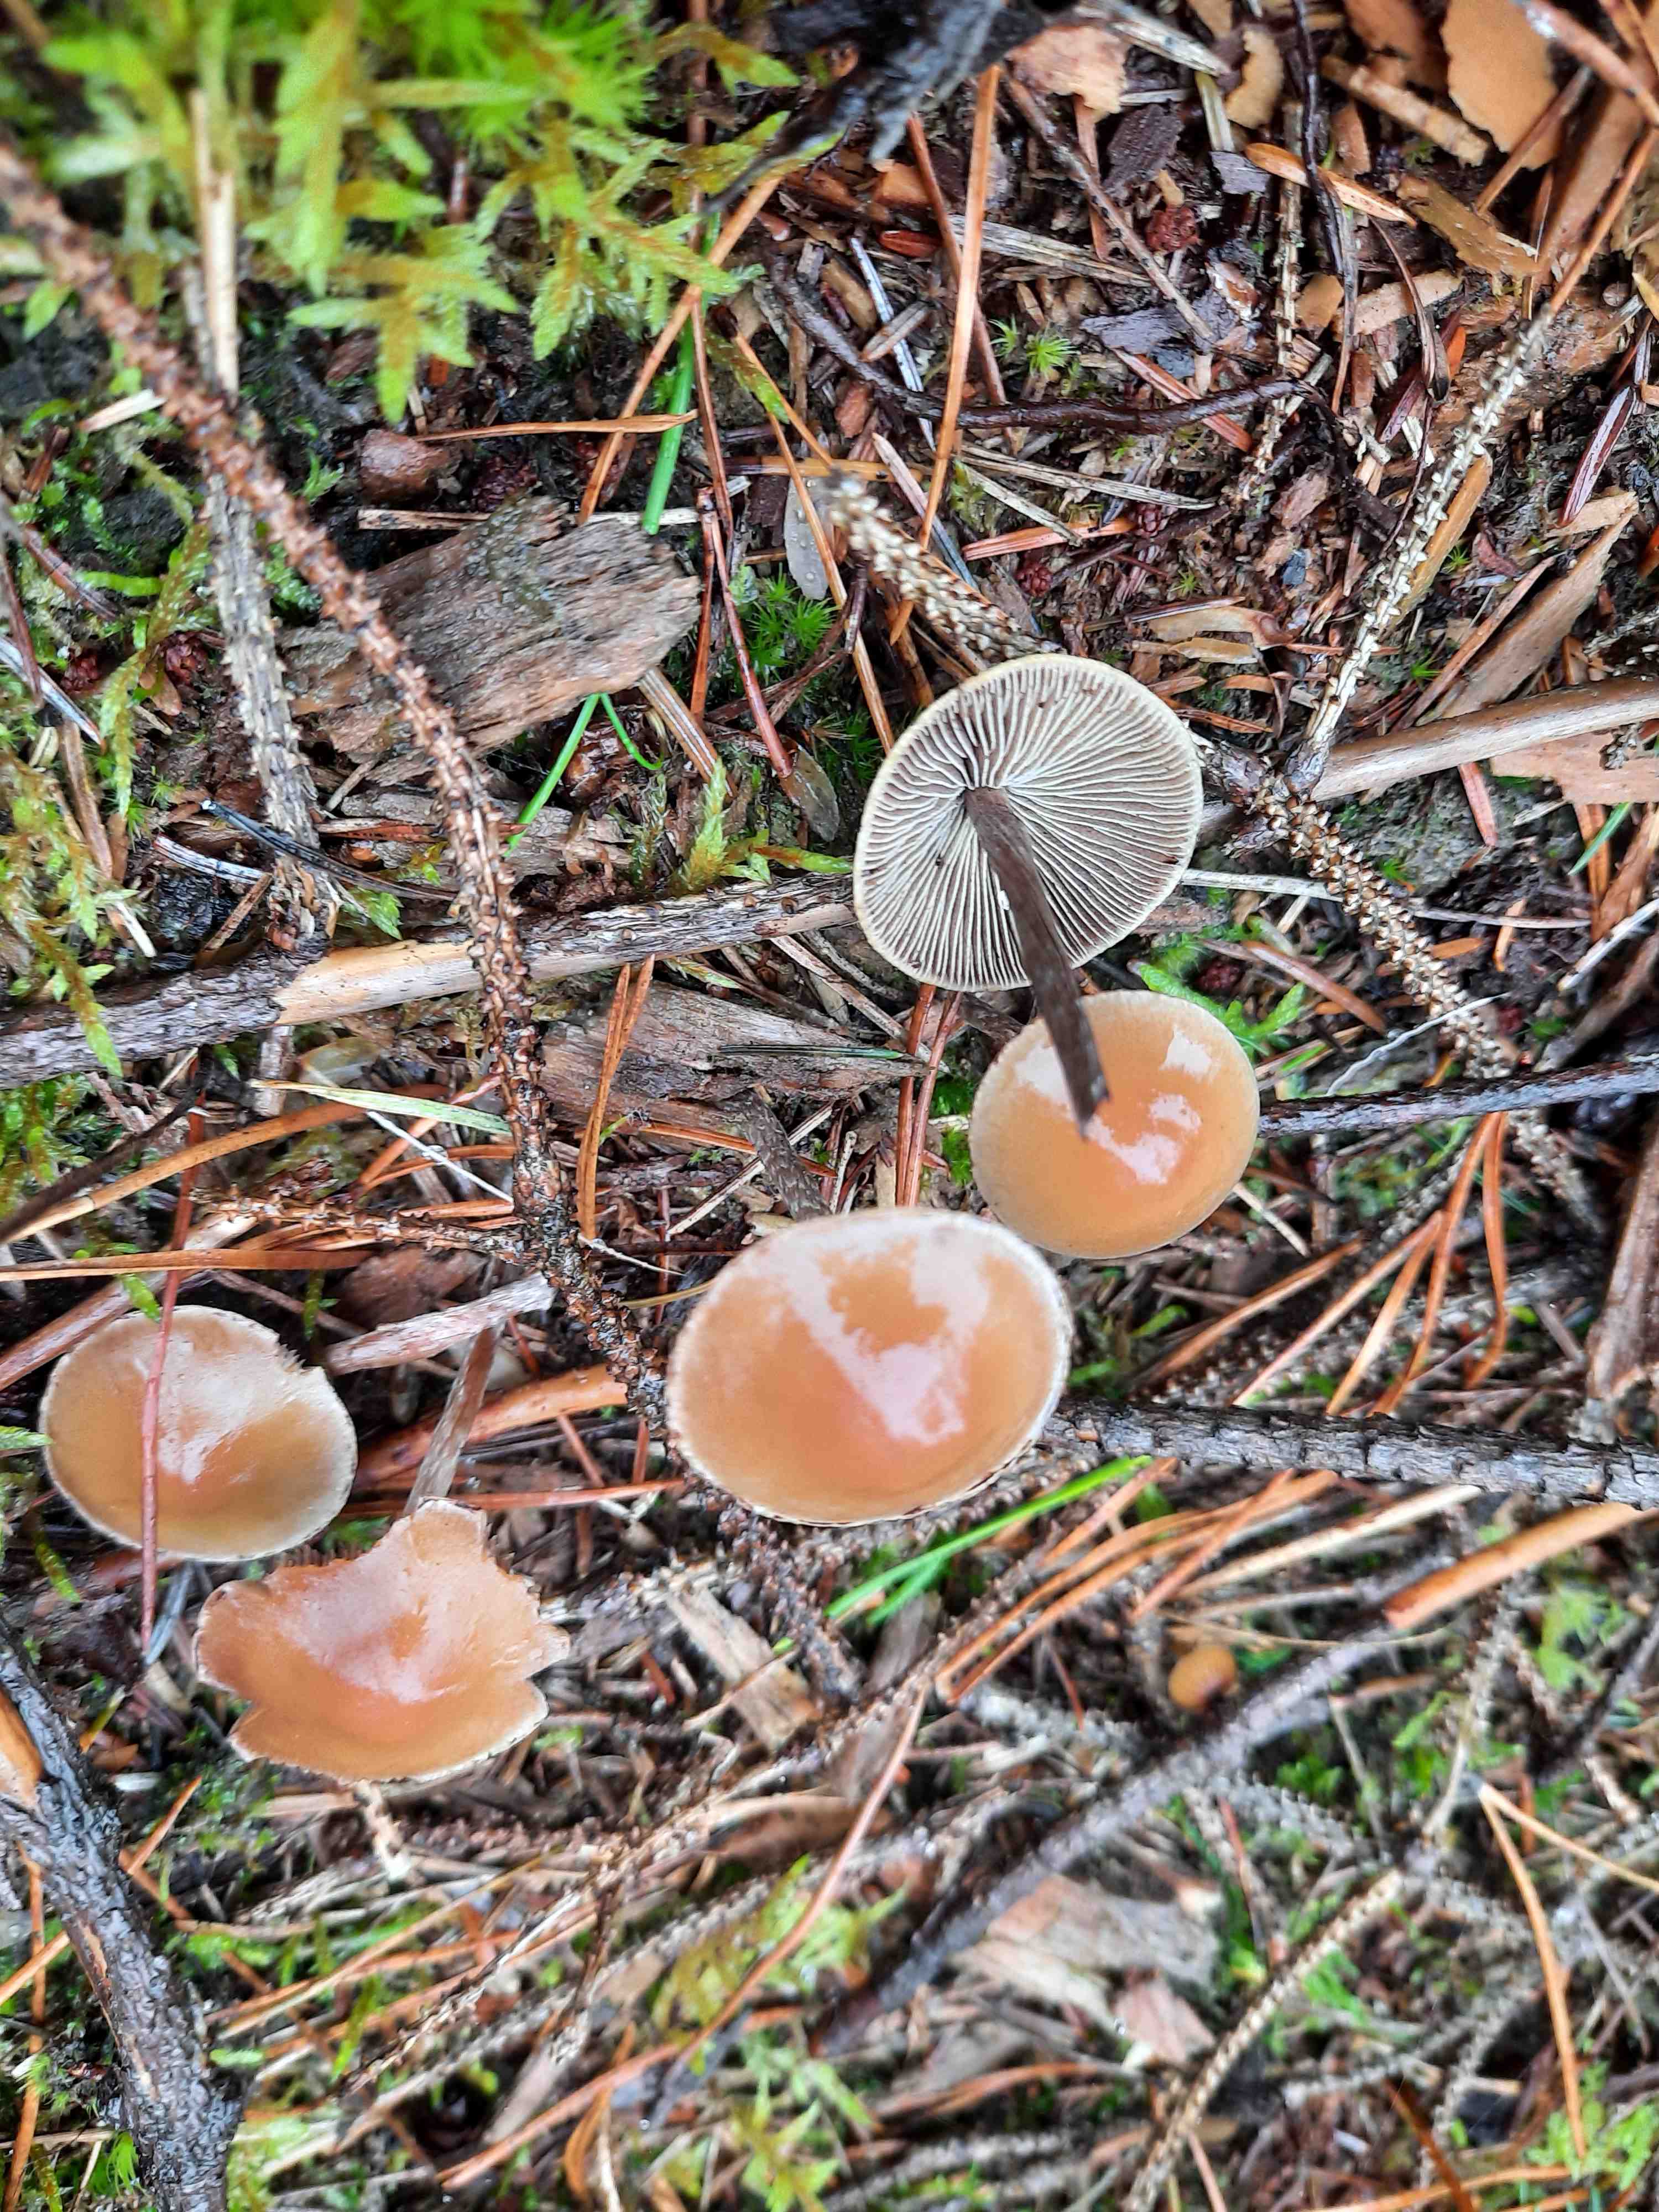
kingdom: Fungi
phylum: Basidiomycota
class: Agaricomycetes
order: Agaricales
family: Strophariaceae
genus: Hypholoma
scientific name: Hypholoma marginatum
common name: enlig svovlhat
